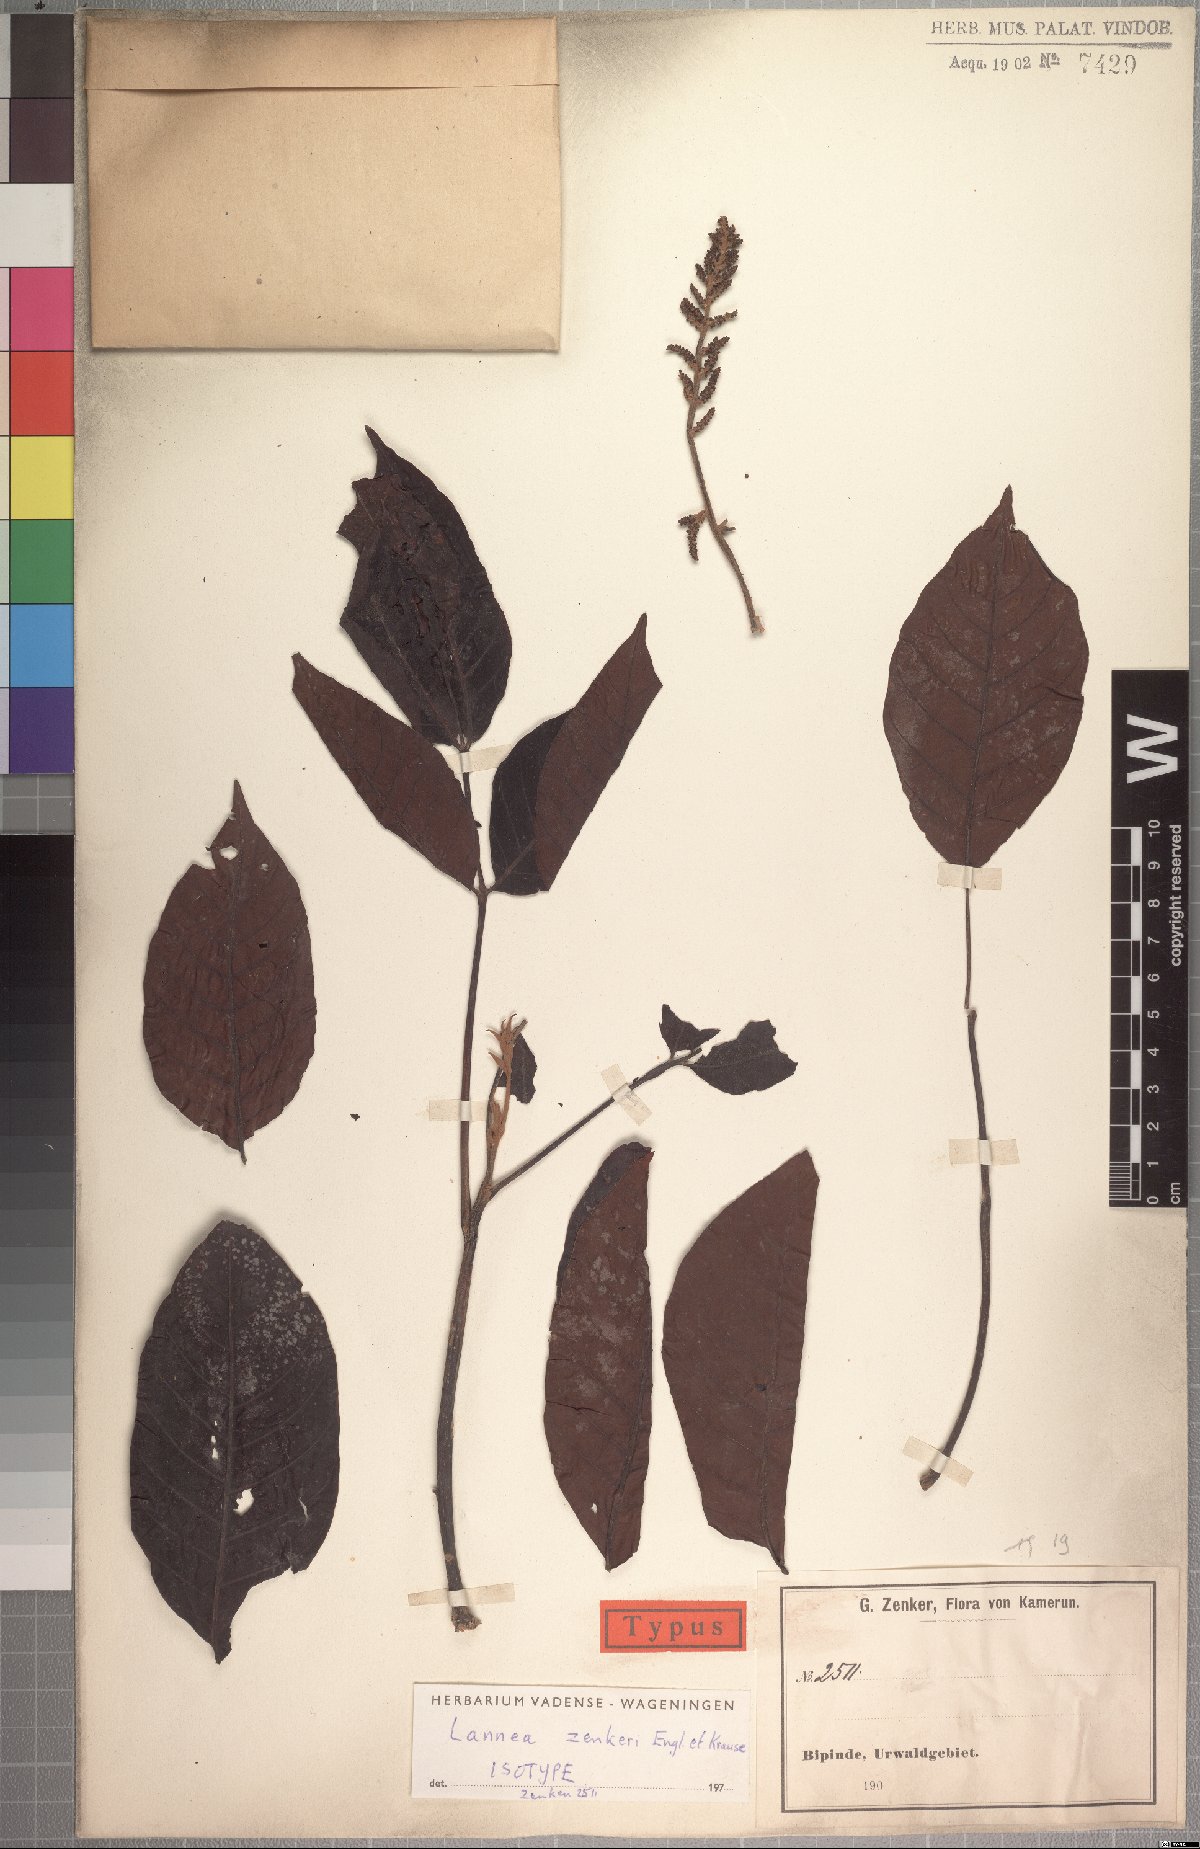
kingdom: Plantae
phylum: Tracheophyta
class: Magnoliopsida
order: Sapindales
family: Anacardiaceae
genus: Lannea
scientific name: Lannea zenkeri
